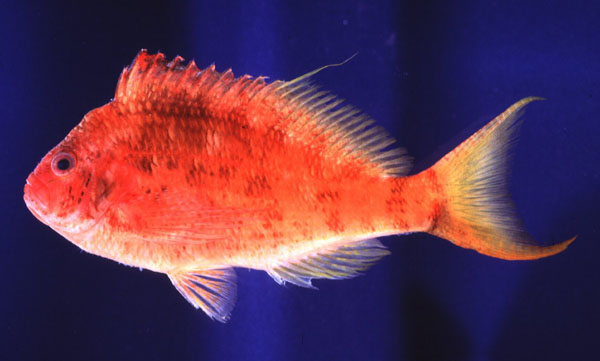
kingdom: Animalia
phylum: Chordata
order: Perciformes
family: Cirrhitidae
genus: Cyprinocirrhites
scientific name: Cyprinocirrhites polyactis
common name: Swallowtail hawkfish
